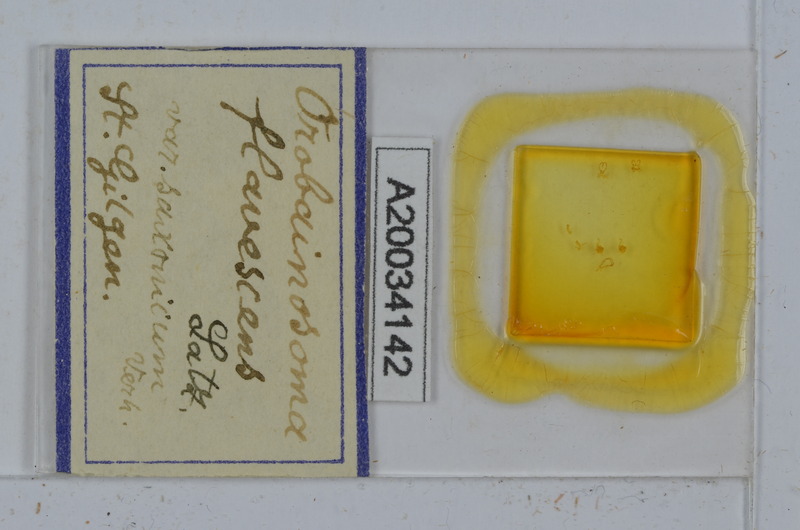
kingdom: Animalia
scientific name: Animalia
